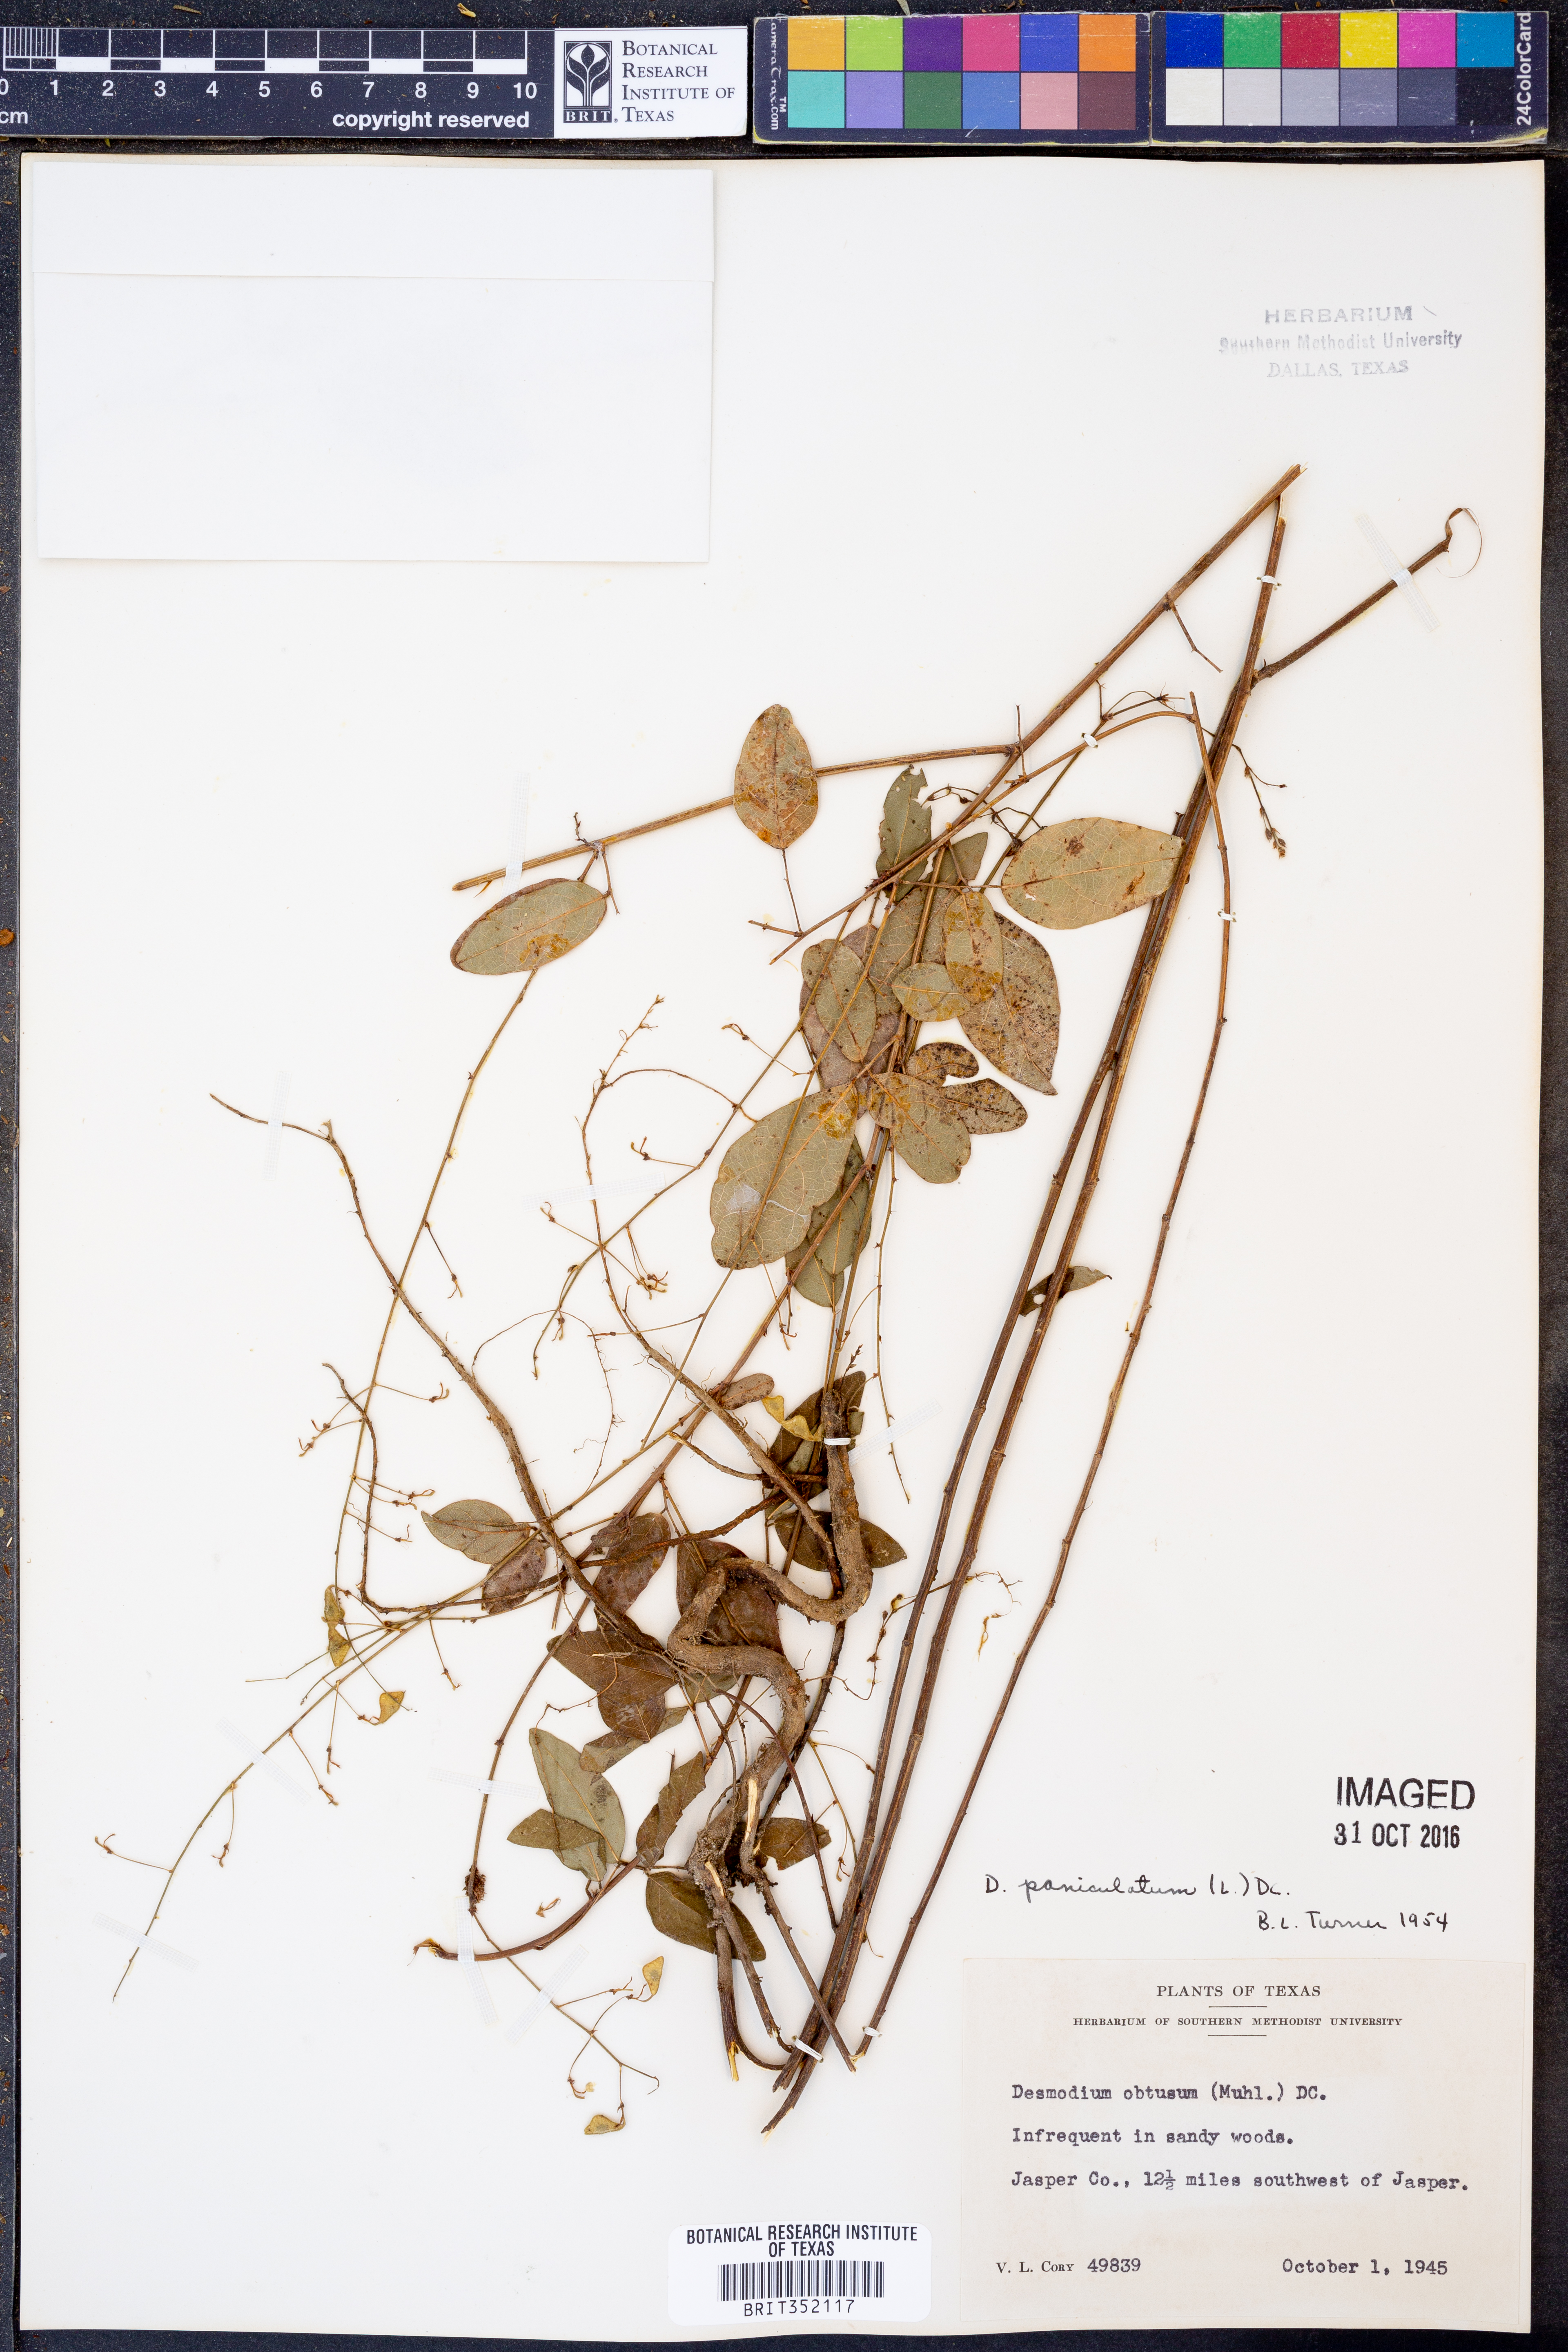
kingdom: Plantae
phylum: Tracheophyta
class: Magnoliopsida
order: Fabales
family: Fabaceae
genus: Hylodesmum
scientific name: Hylodesmum pauciflorum
